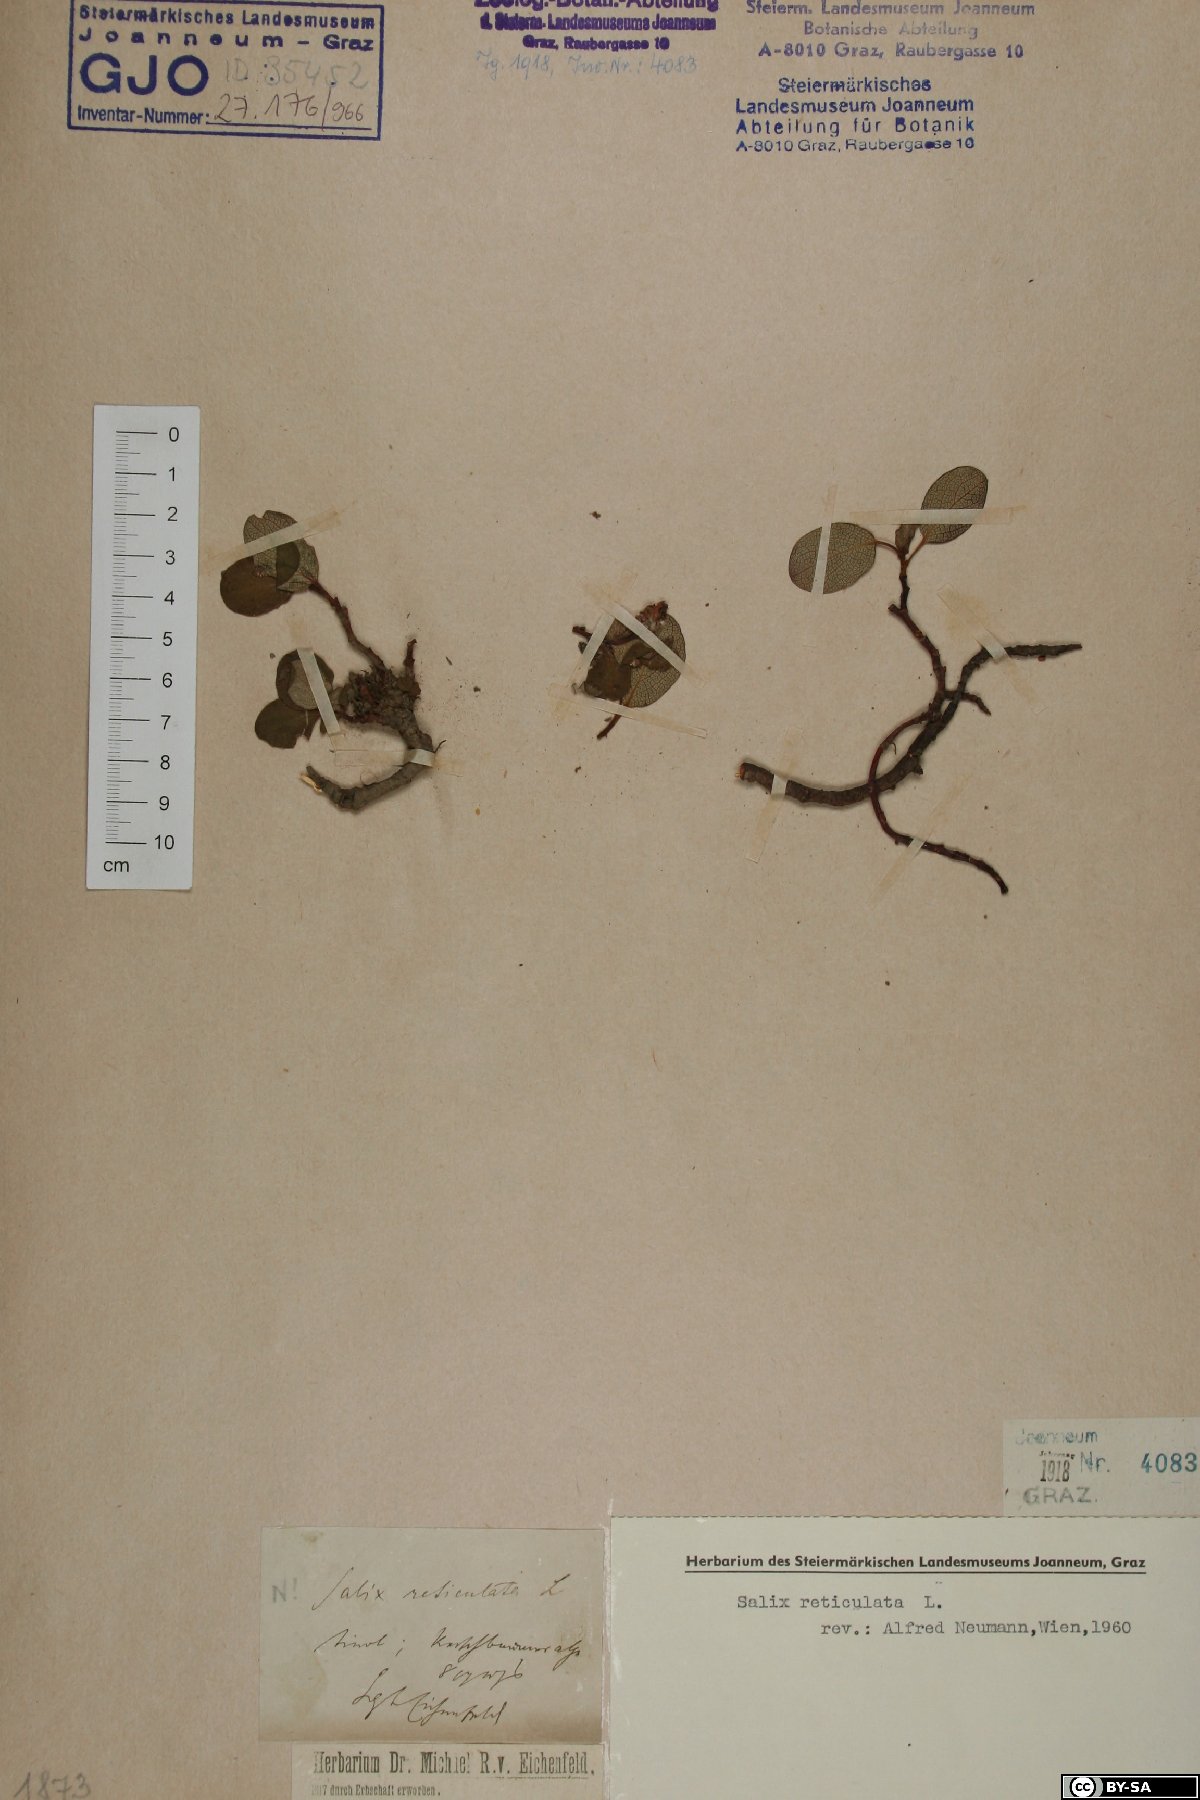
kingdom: Plantae
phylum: Tracheophyta
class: Magnoliopsida
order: Malpighiales
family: Salicaceae
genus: Salix
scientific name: Salix reticulata
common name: Net-leaved willow
